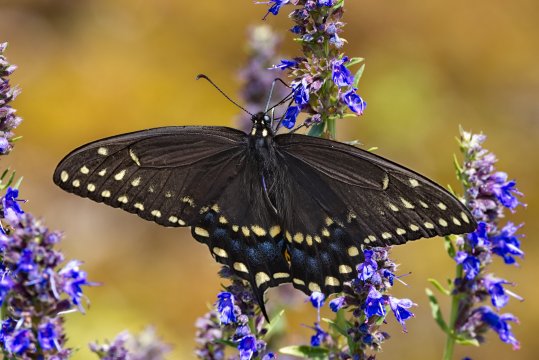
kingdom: Animalia
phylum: Arthropoda
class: Insecta
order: Lepidoptera
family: Papilionidae
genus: Papilio
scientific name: Papilio polyxenes
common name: Black Swallowtail
